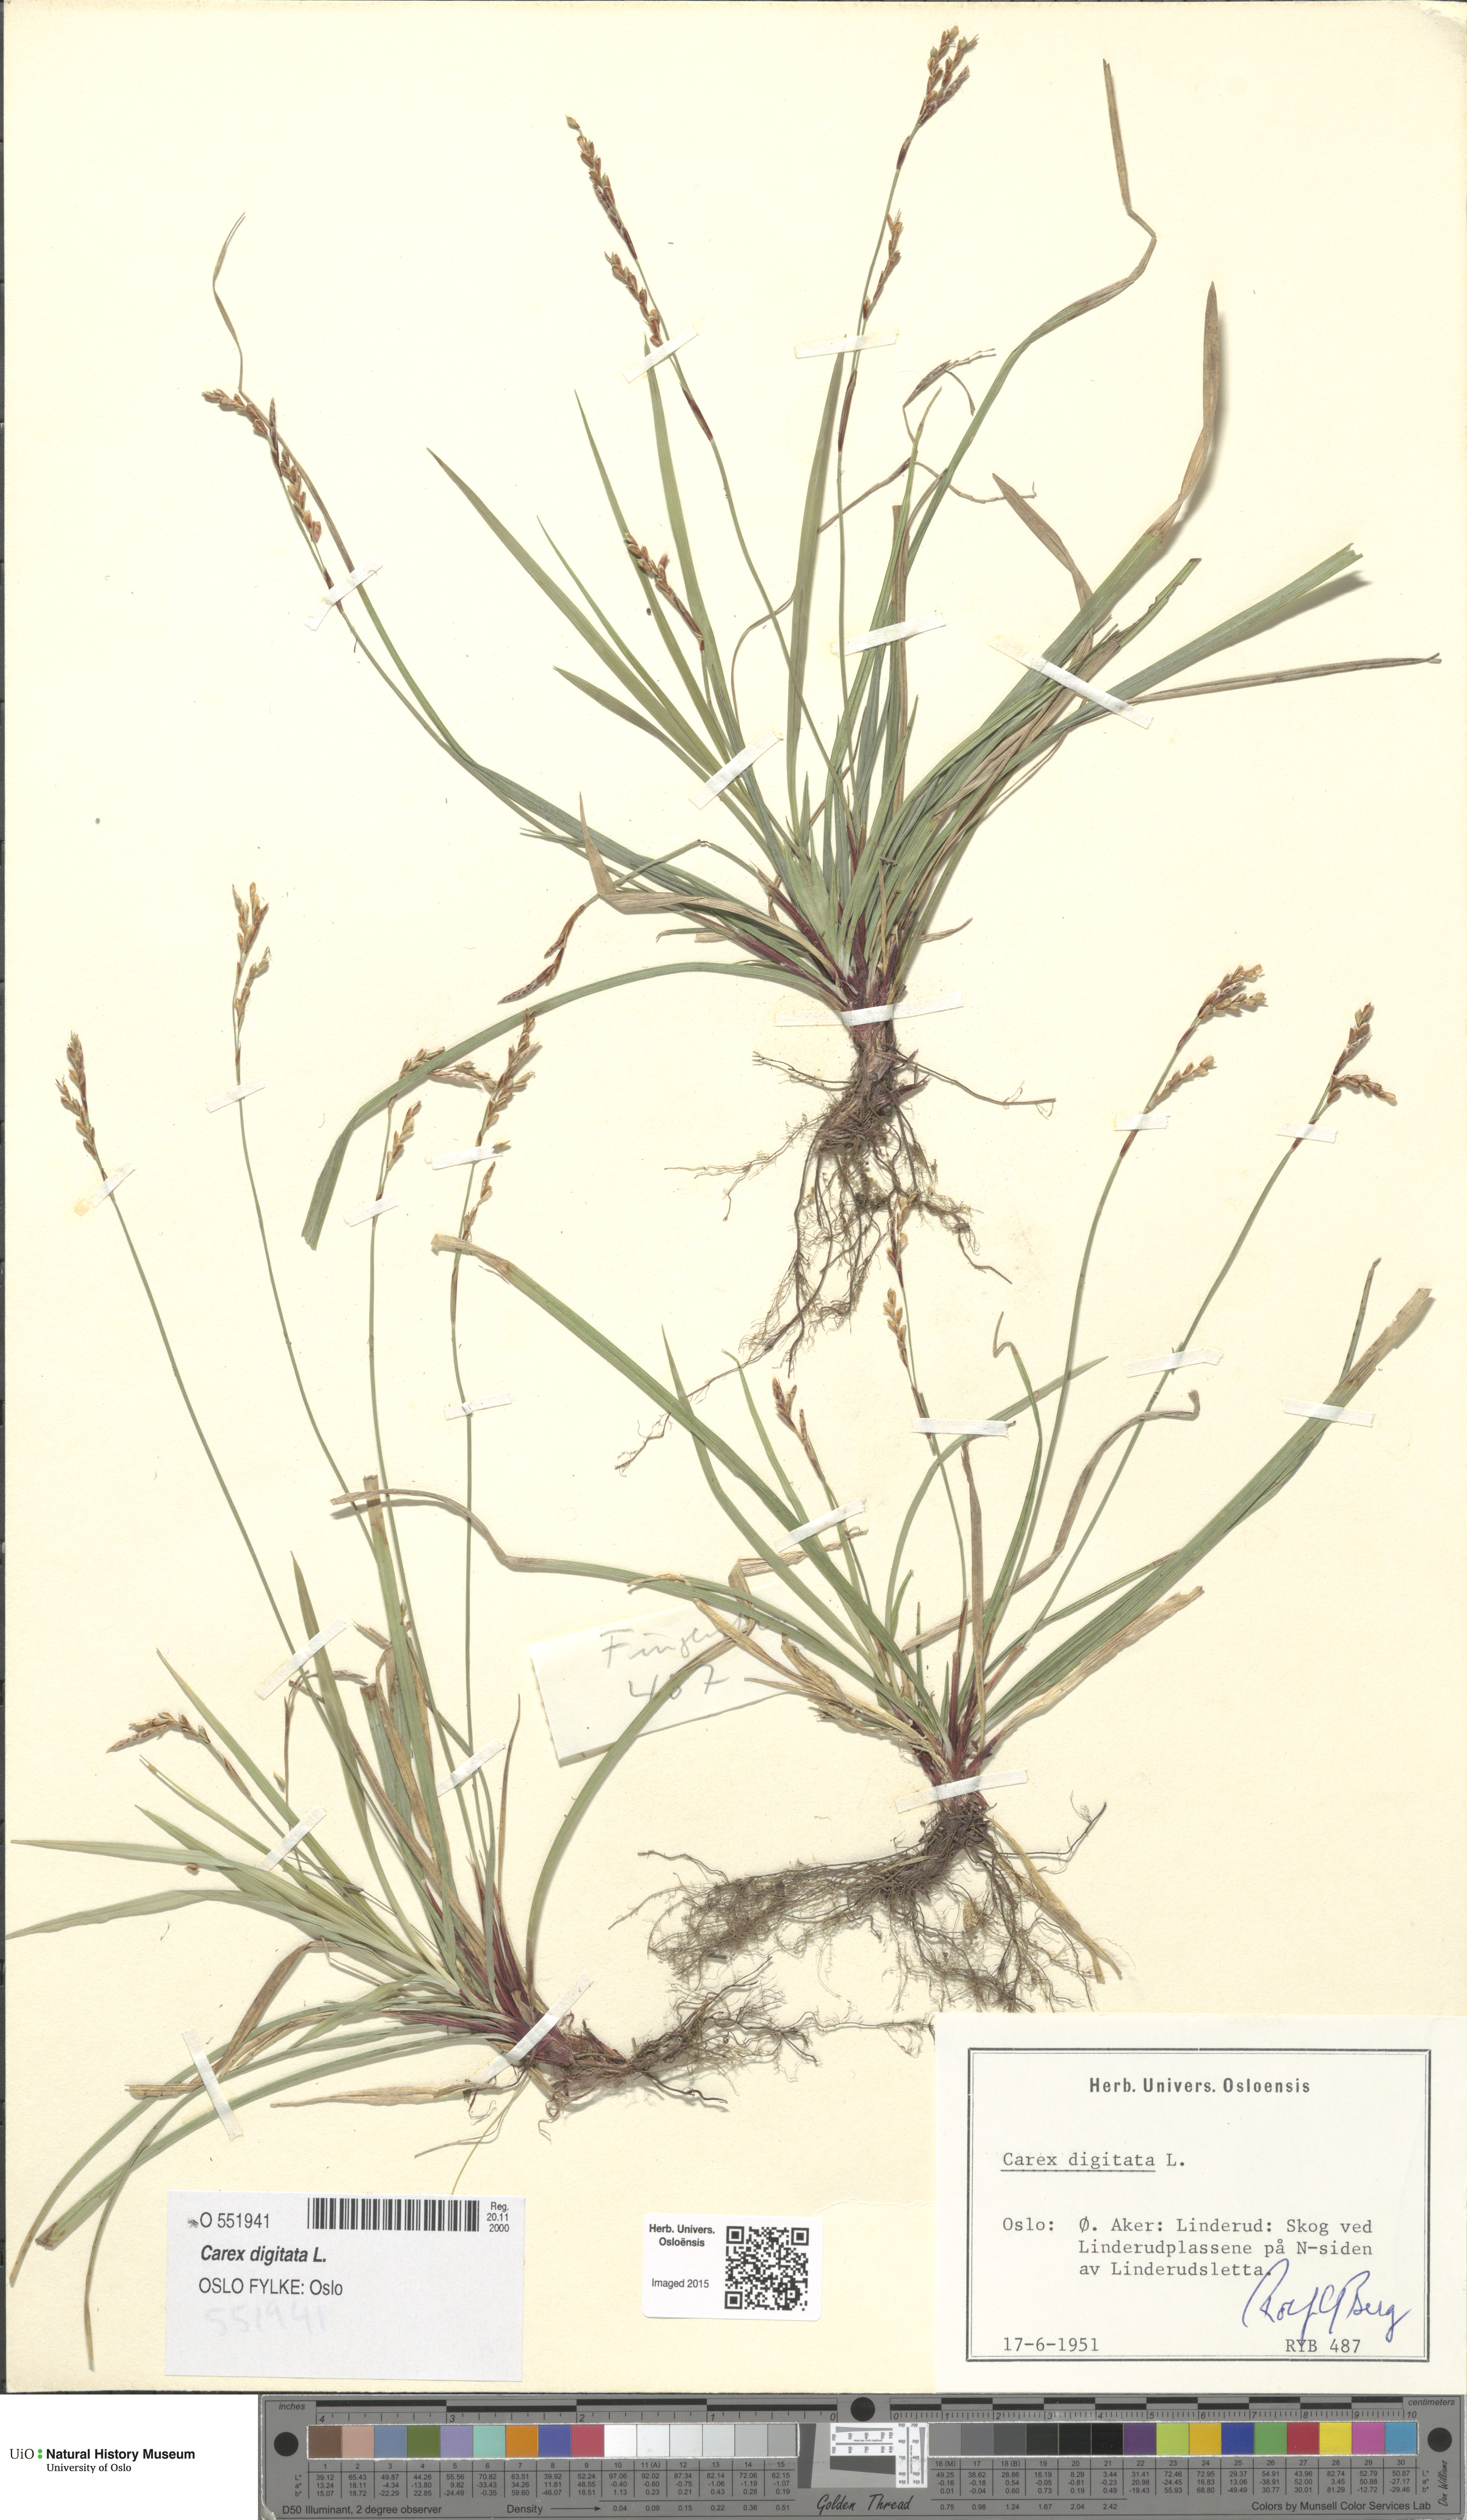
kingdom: Plantae
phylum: Tracheophyta
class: Liliopsida
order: Poales
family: Cyperaceae
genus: Carex
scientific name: Carex digitata
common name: Fingered sedge
